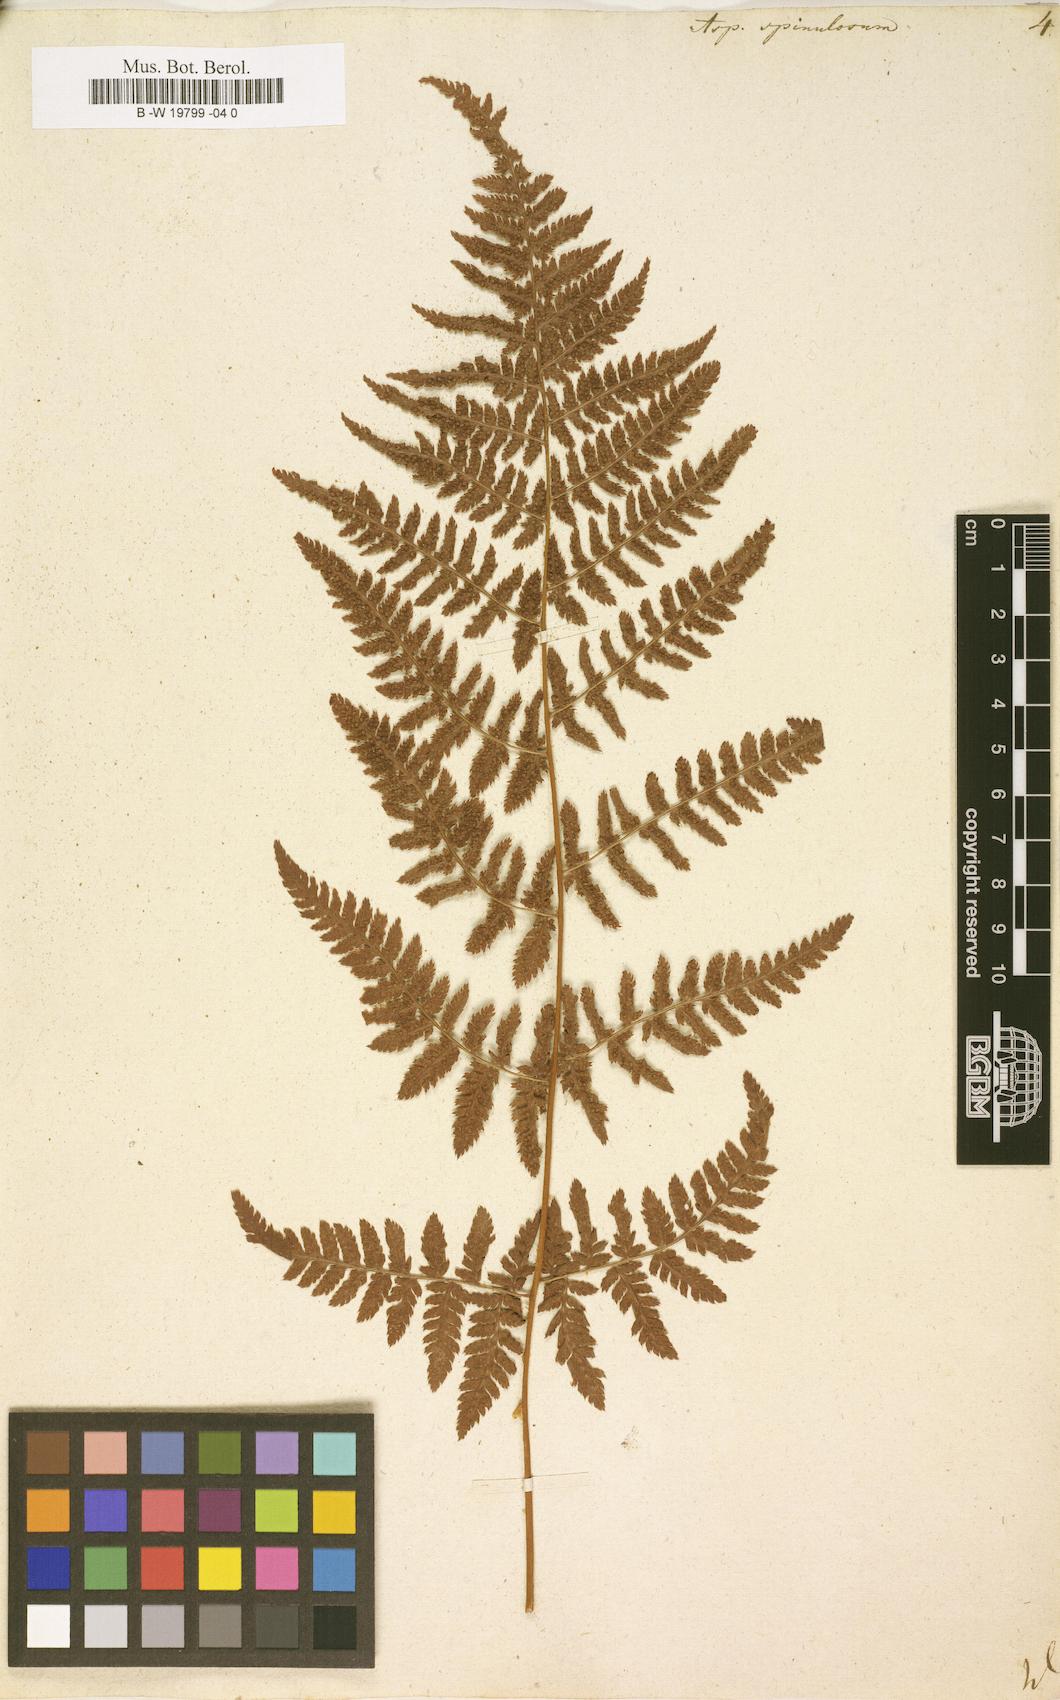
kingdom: Plantae
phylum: Tracheophyta
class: Polypodiopsida
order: Polypodiales
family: Dryopteridaceae
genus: Dryopteris
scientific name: Dryopteris
